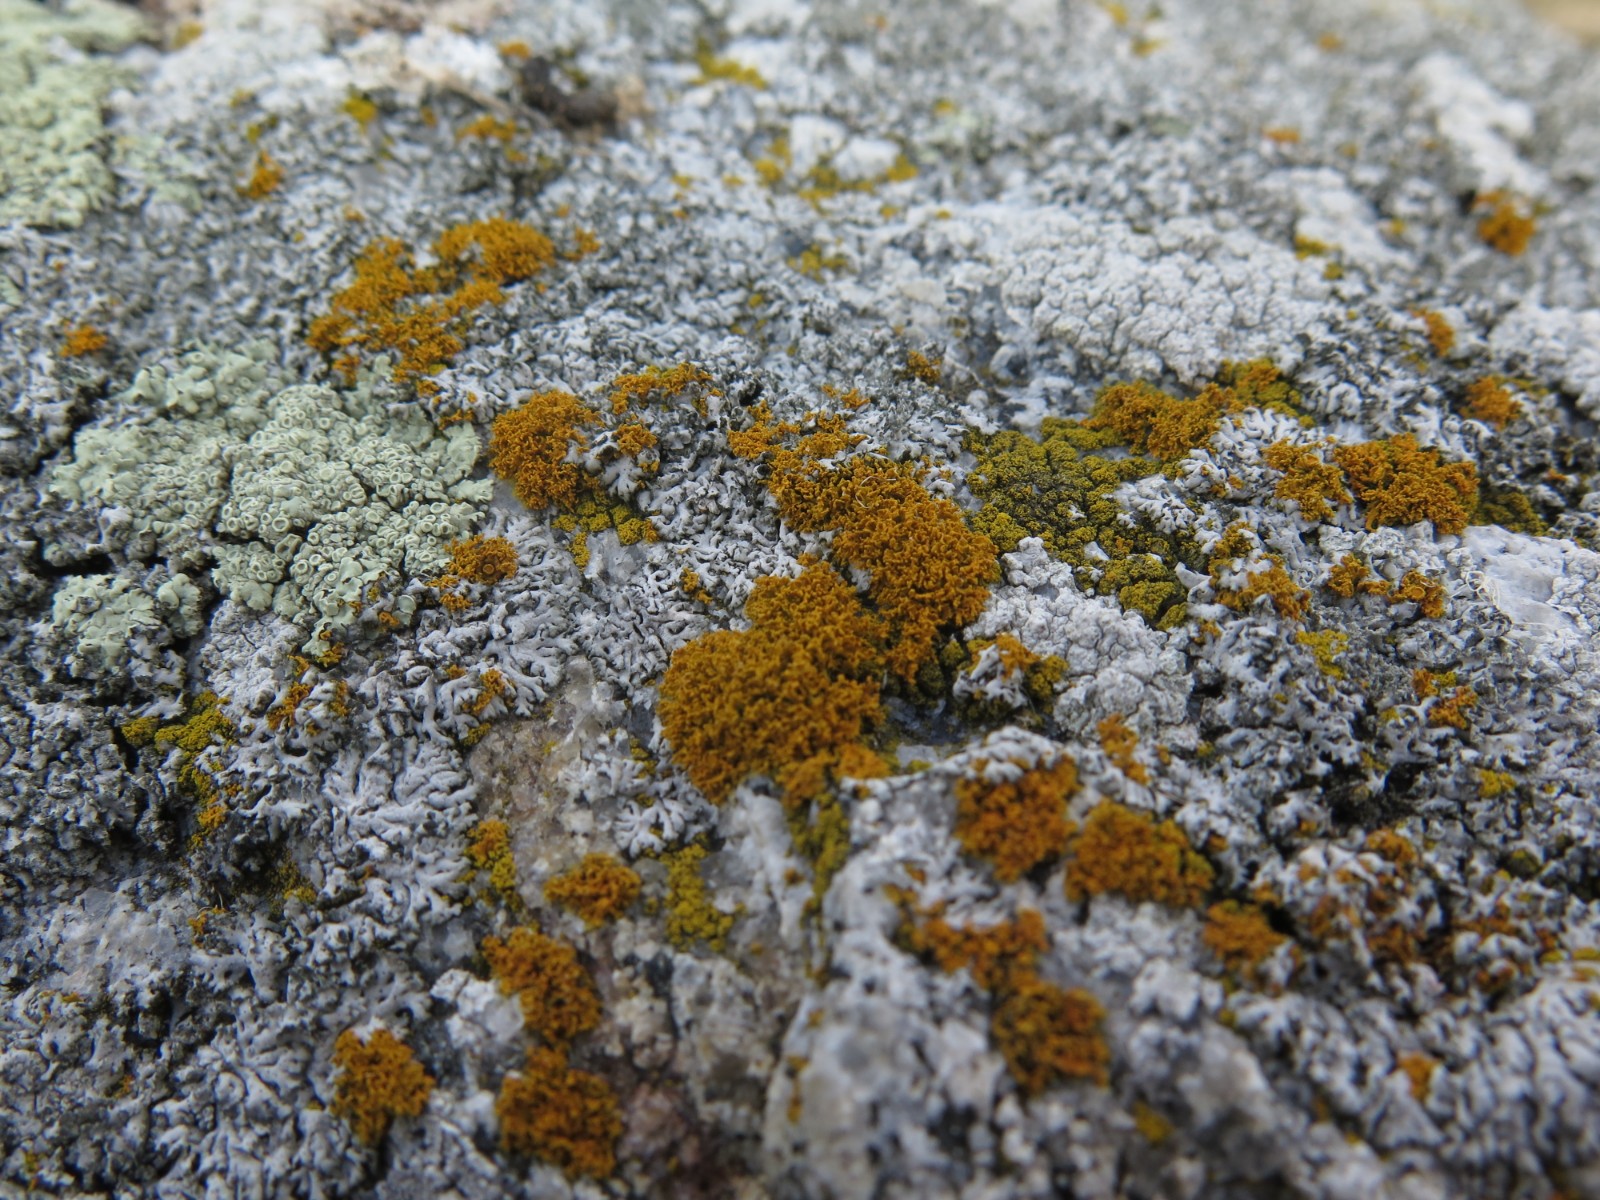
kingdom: Fungi
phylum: Ascomycota
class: Candelariomycetes
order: Candelariales
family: Candelariaceae
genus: Candelariella
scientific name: Candelariella vitellina
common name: almindelig æggeblommelav
